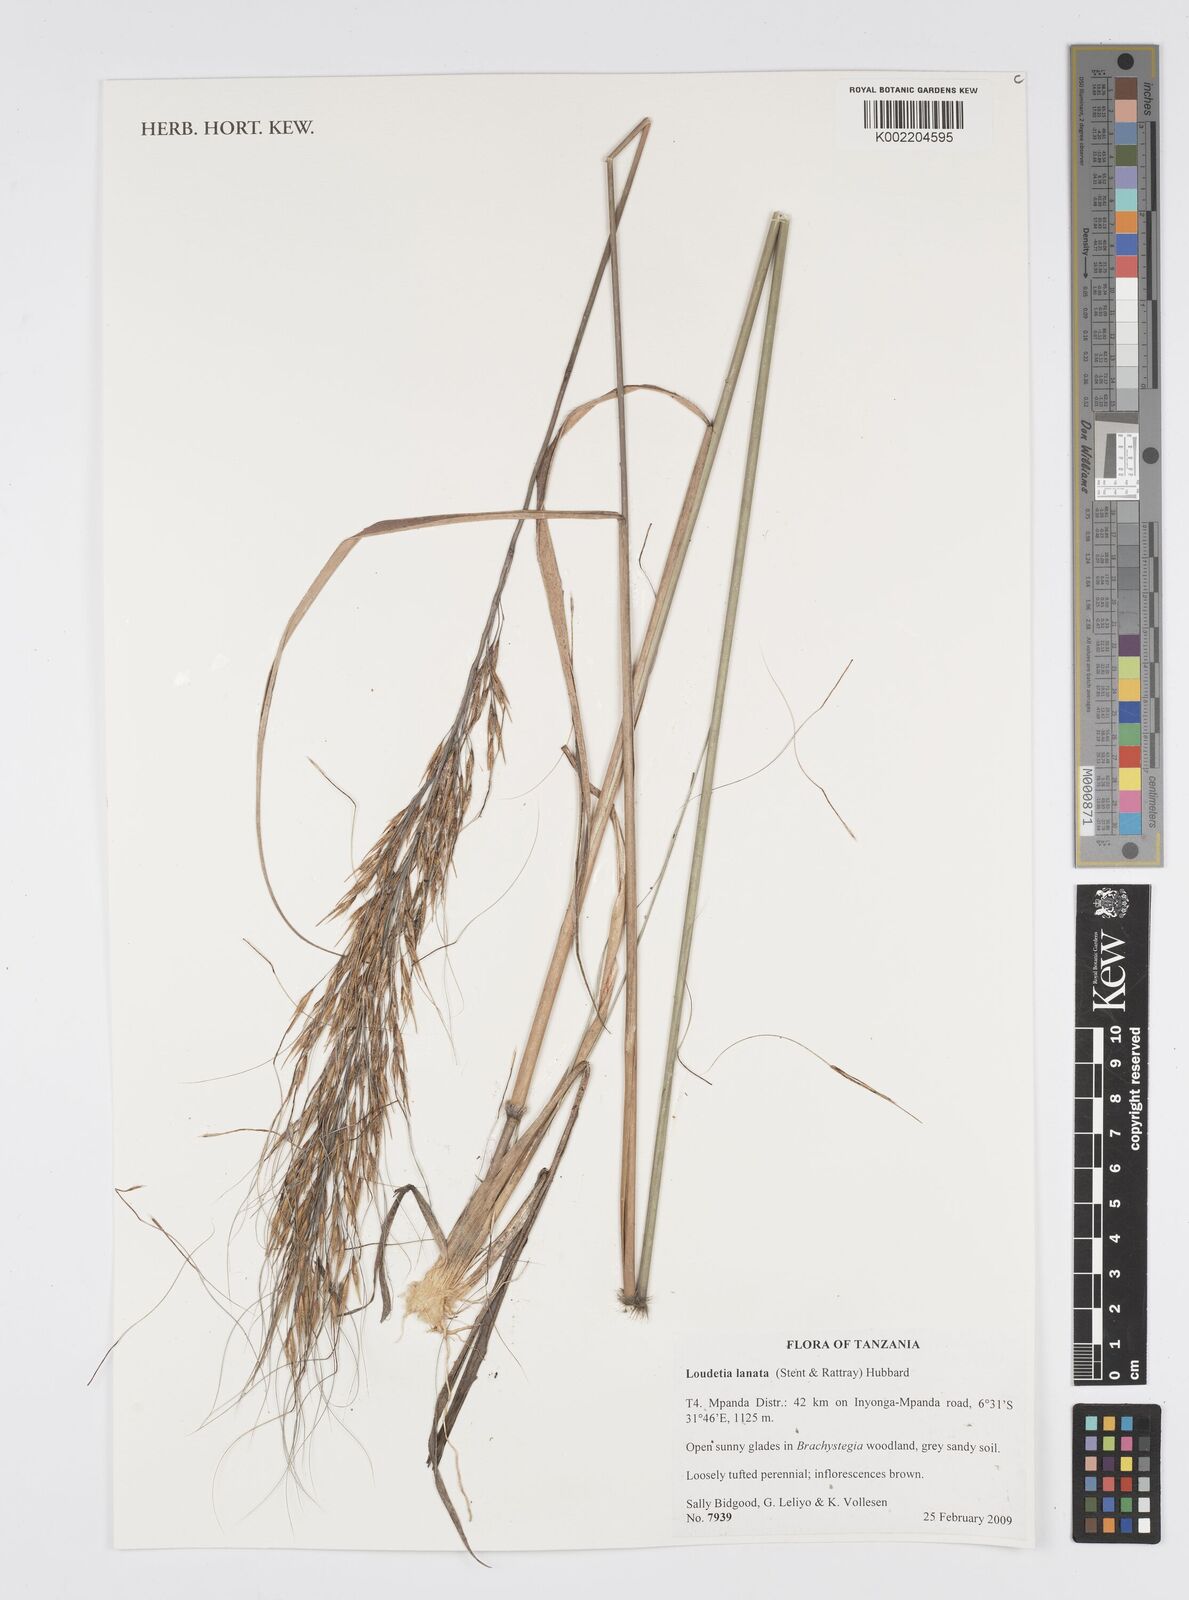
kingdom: Plantae
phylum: Tracheophyta
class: Liliopsida
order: Poales
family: Poaceae
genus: Loudetia
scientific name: Loudetia lanata
